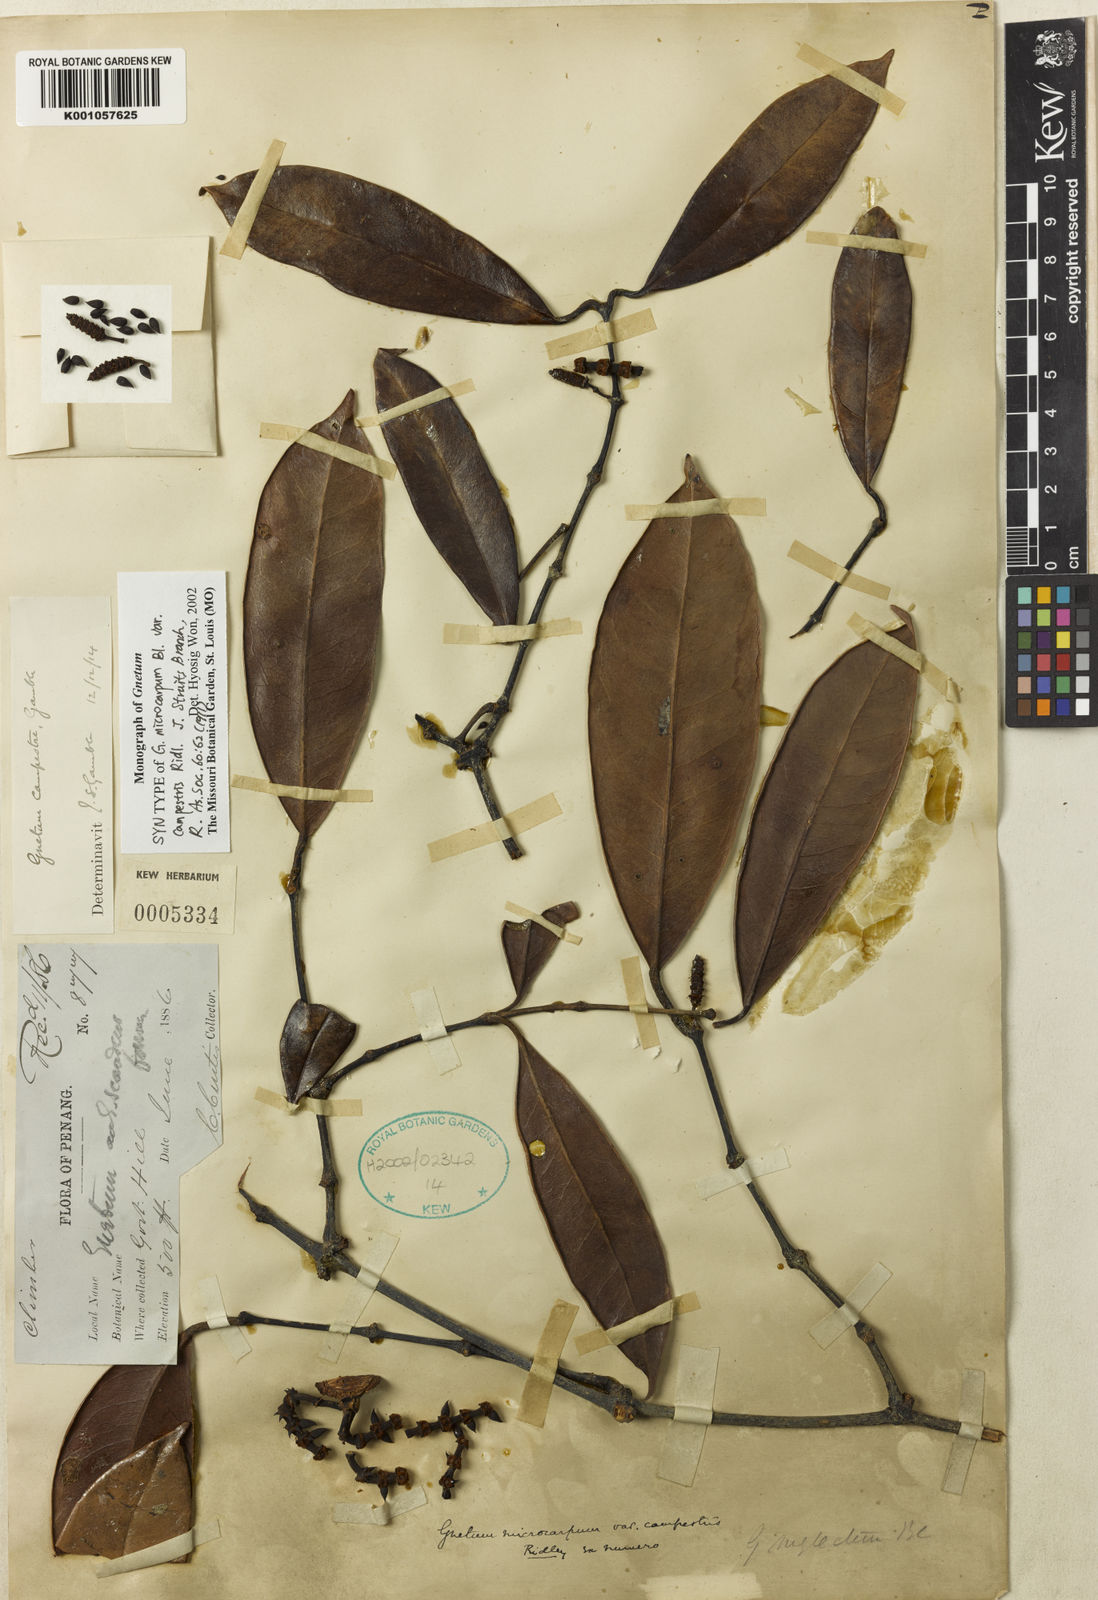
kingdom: Plantae
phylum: Tracheophyta
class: Gnetopsida
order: Gnetales
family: Gnetaceae
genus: Gnetum
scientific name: Gnetum microcarpum
